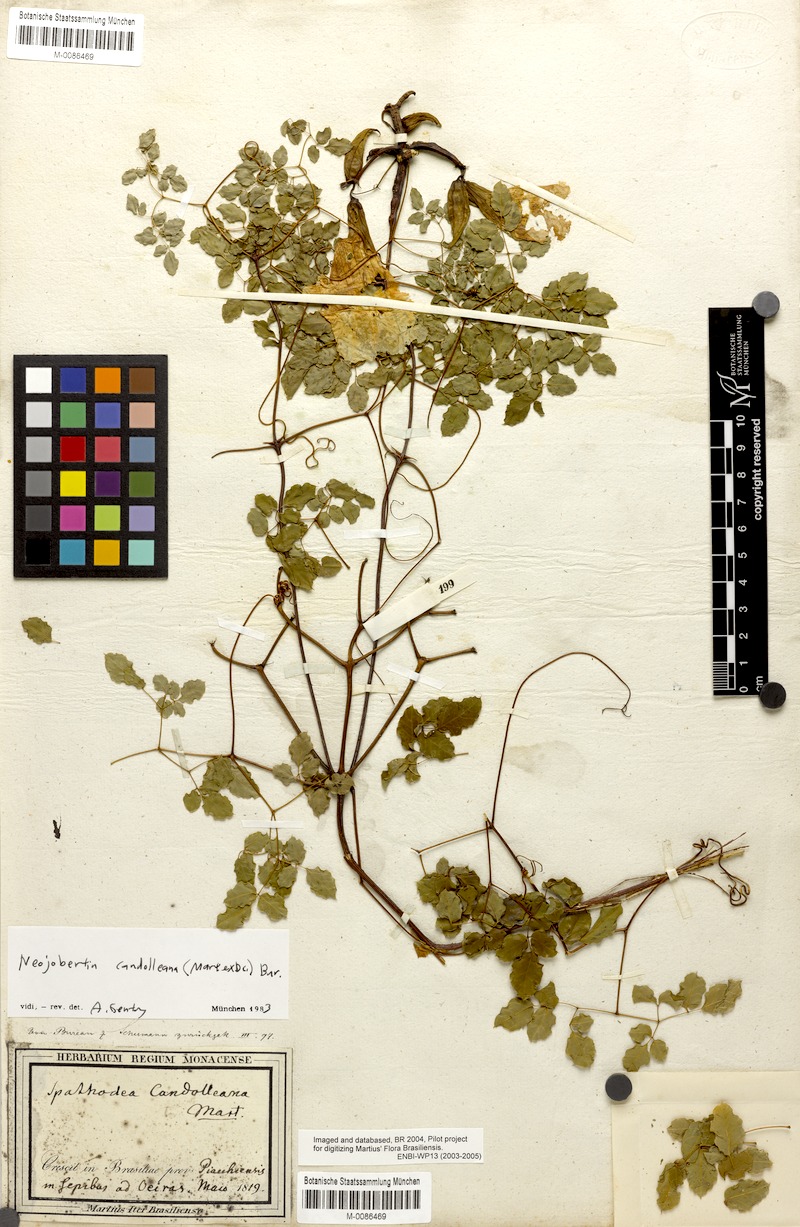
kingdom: Plantae
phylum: Tracheophyta
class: Magnoliopsida
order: Lamiales
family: Bignoniaceae
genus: Adenocalymma
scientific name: Adenocalymma candolleanum
